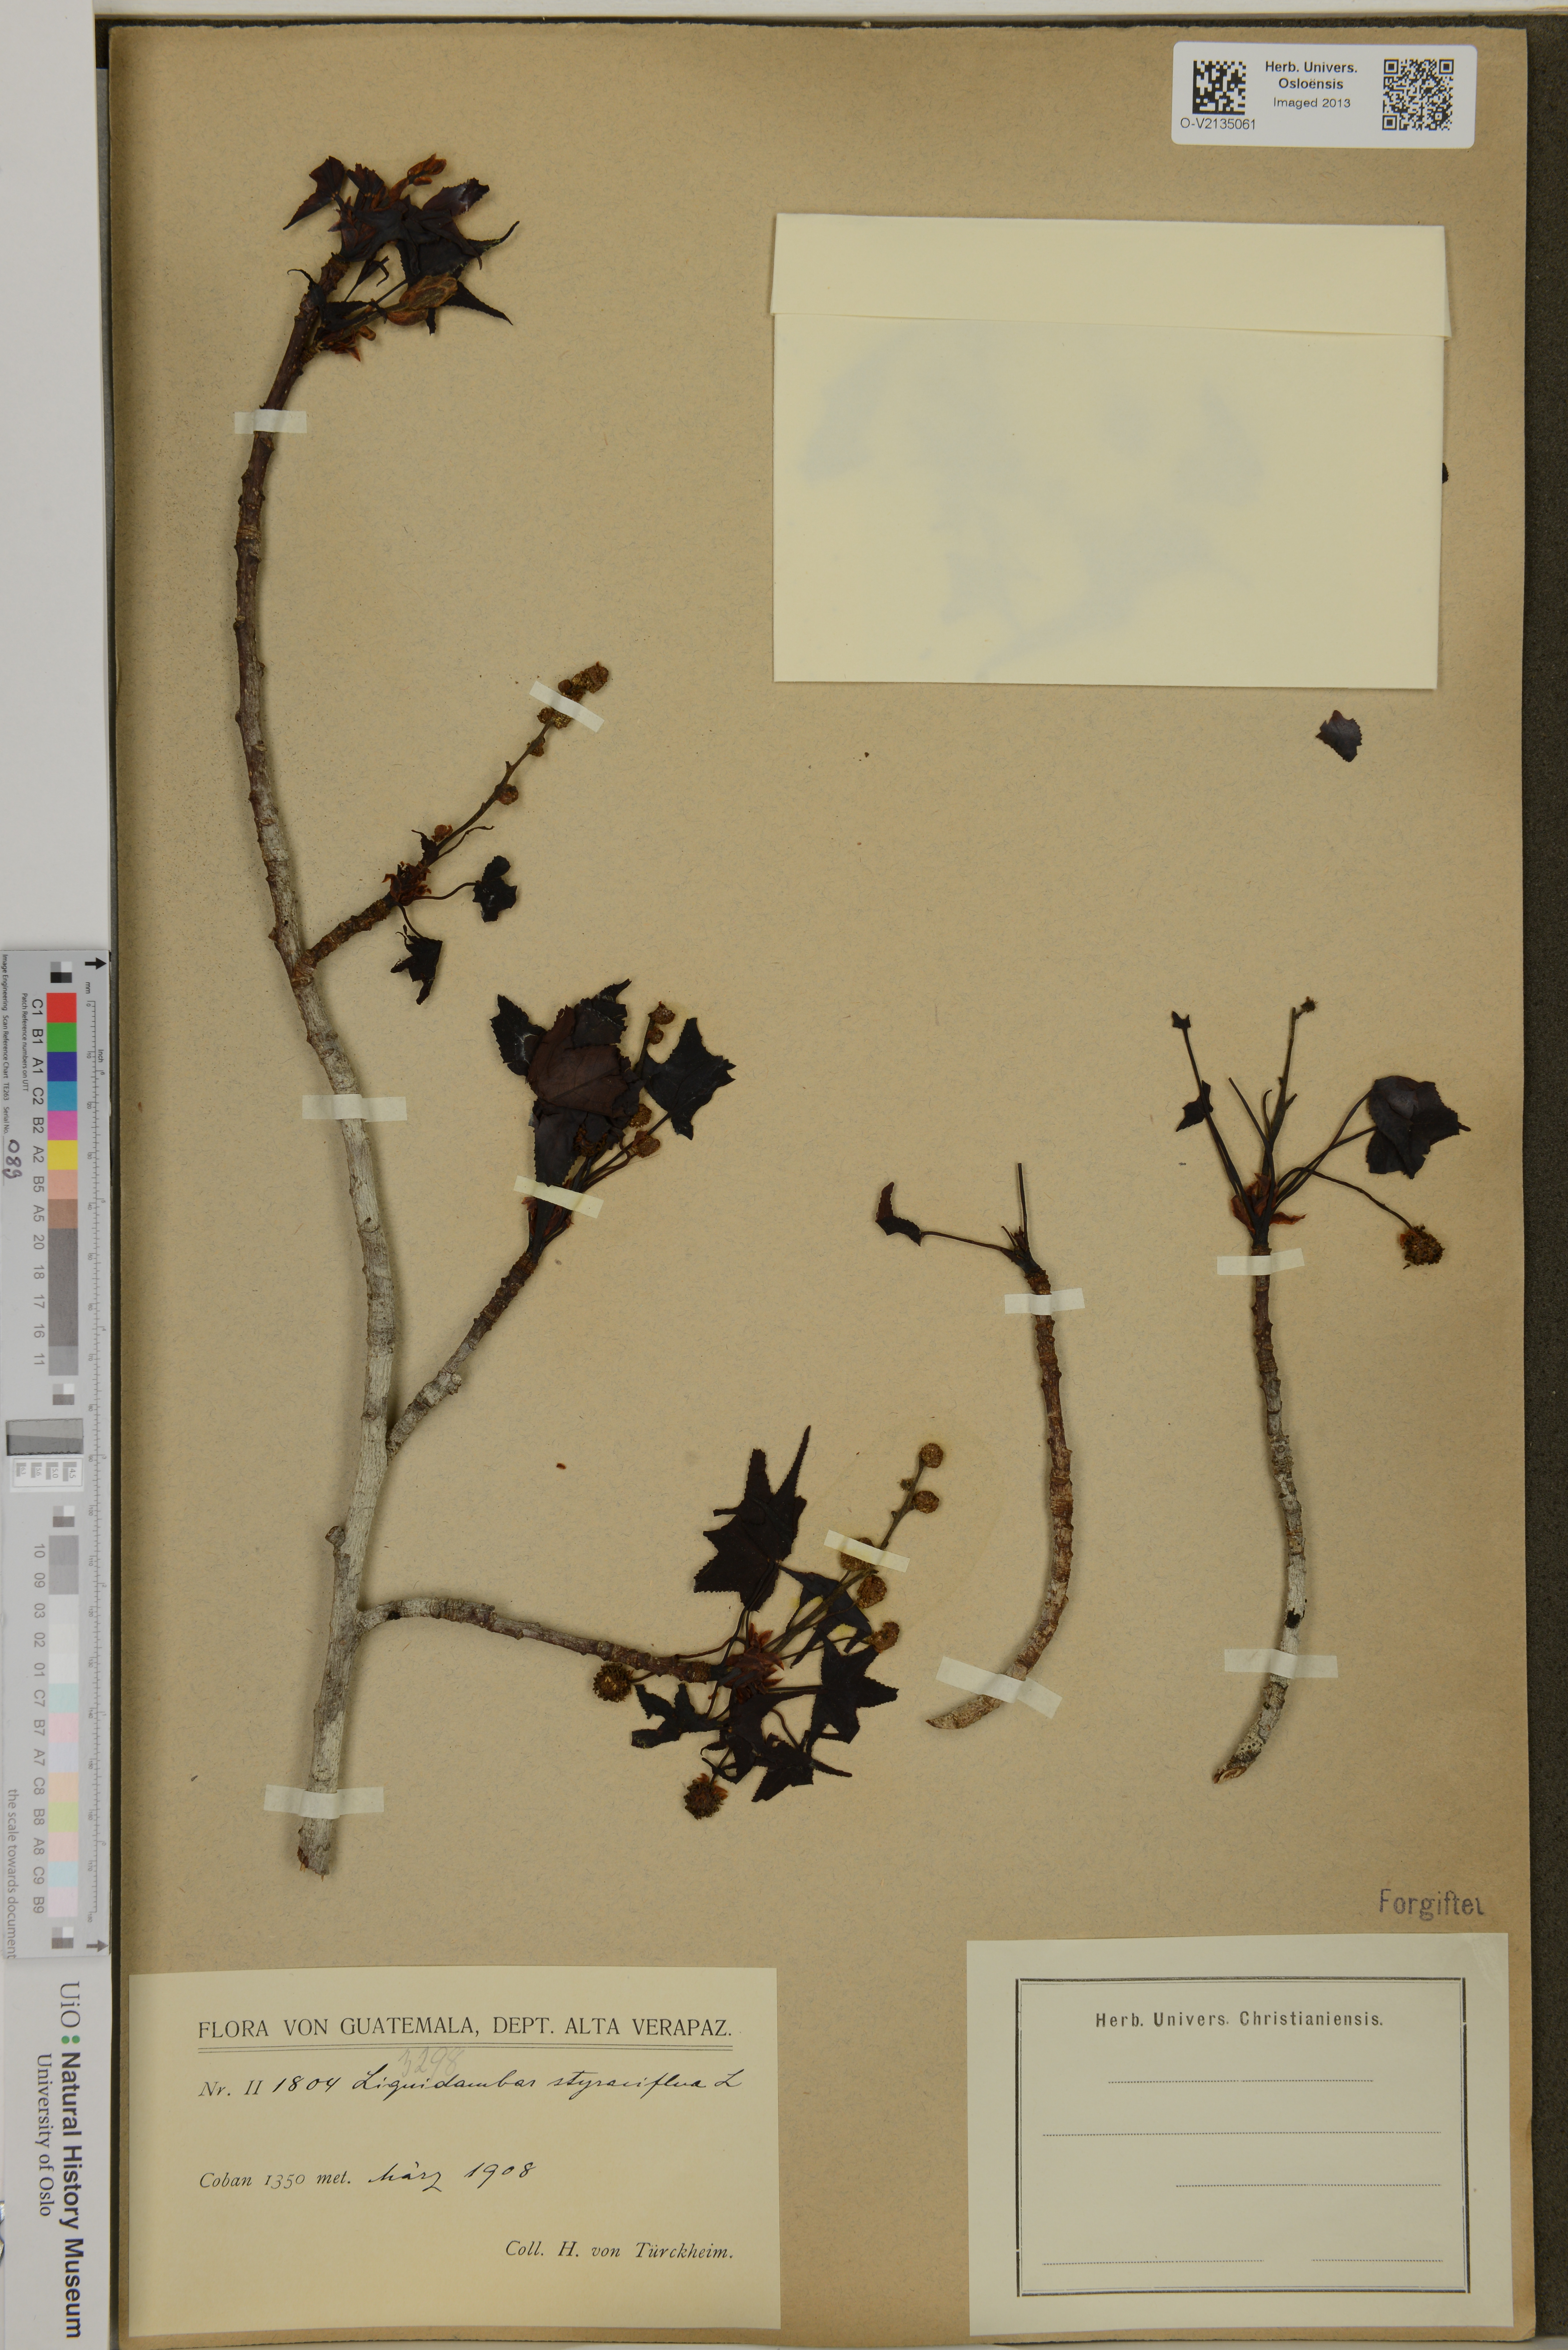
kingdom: Plantae
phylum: Tracheophyta
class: Magnoliopsida
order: Saxifragales
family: Altingiaceae
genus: Liquidambar
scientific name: Liquidambar styraciflua
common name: Sweet gum
